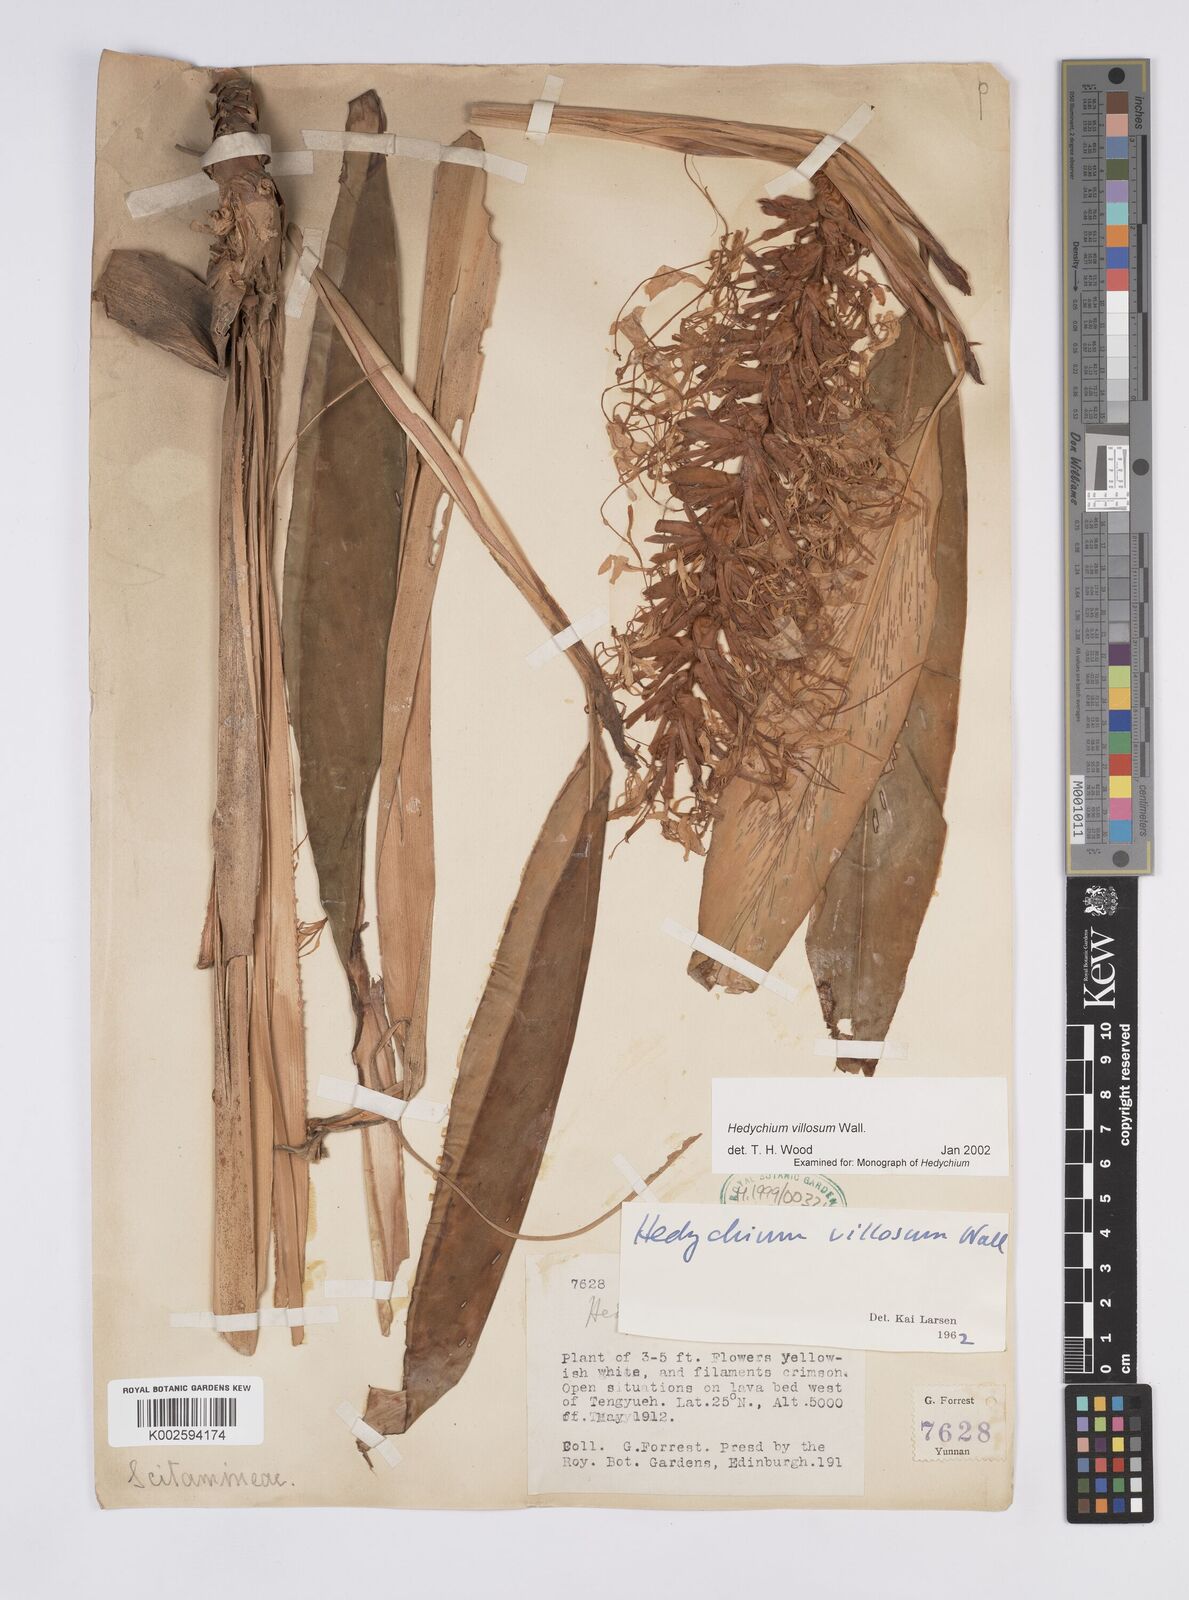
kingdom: Plantae
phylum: Tracheophyta
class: Liliopsida
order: Zingiberales
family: Zingiberaceae
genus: Hedychium
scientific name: Hedychium villosum
